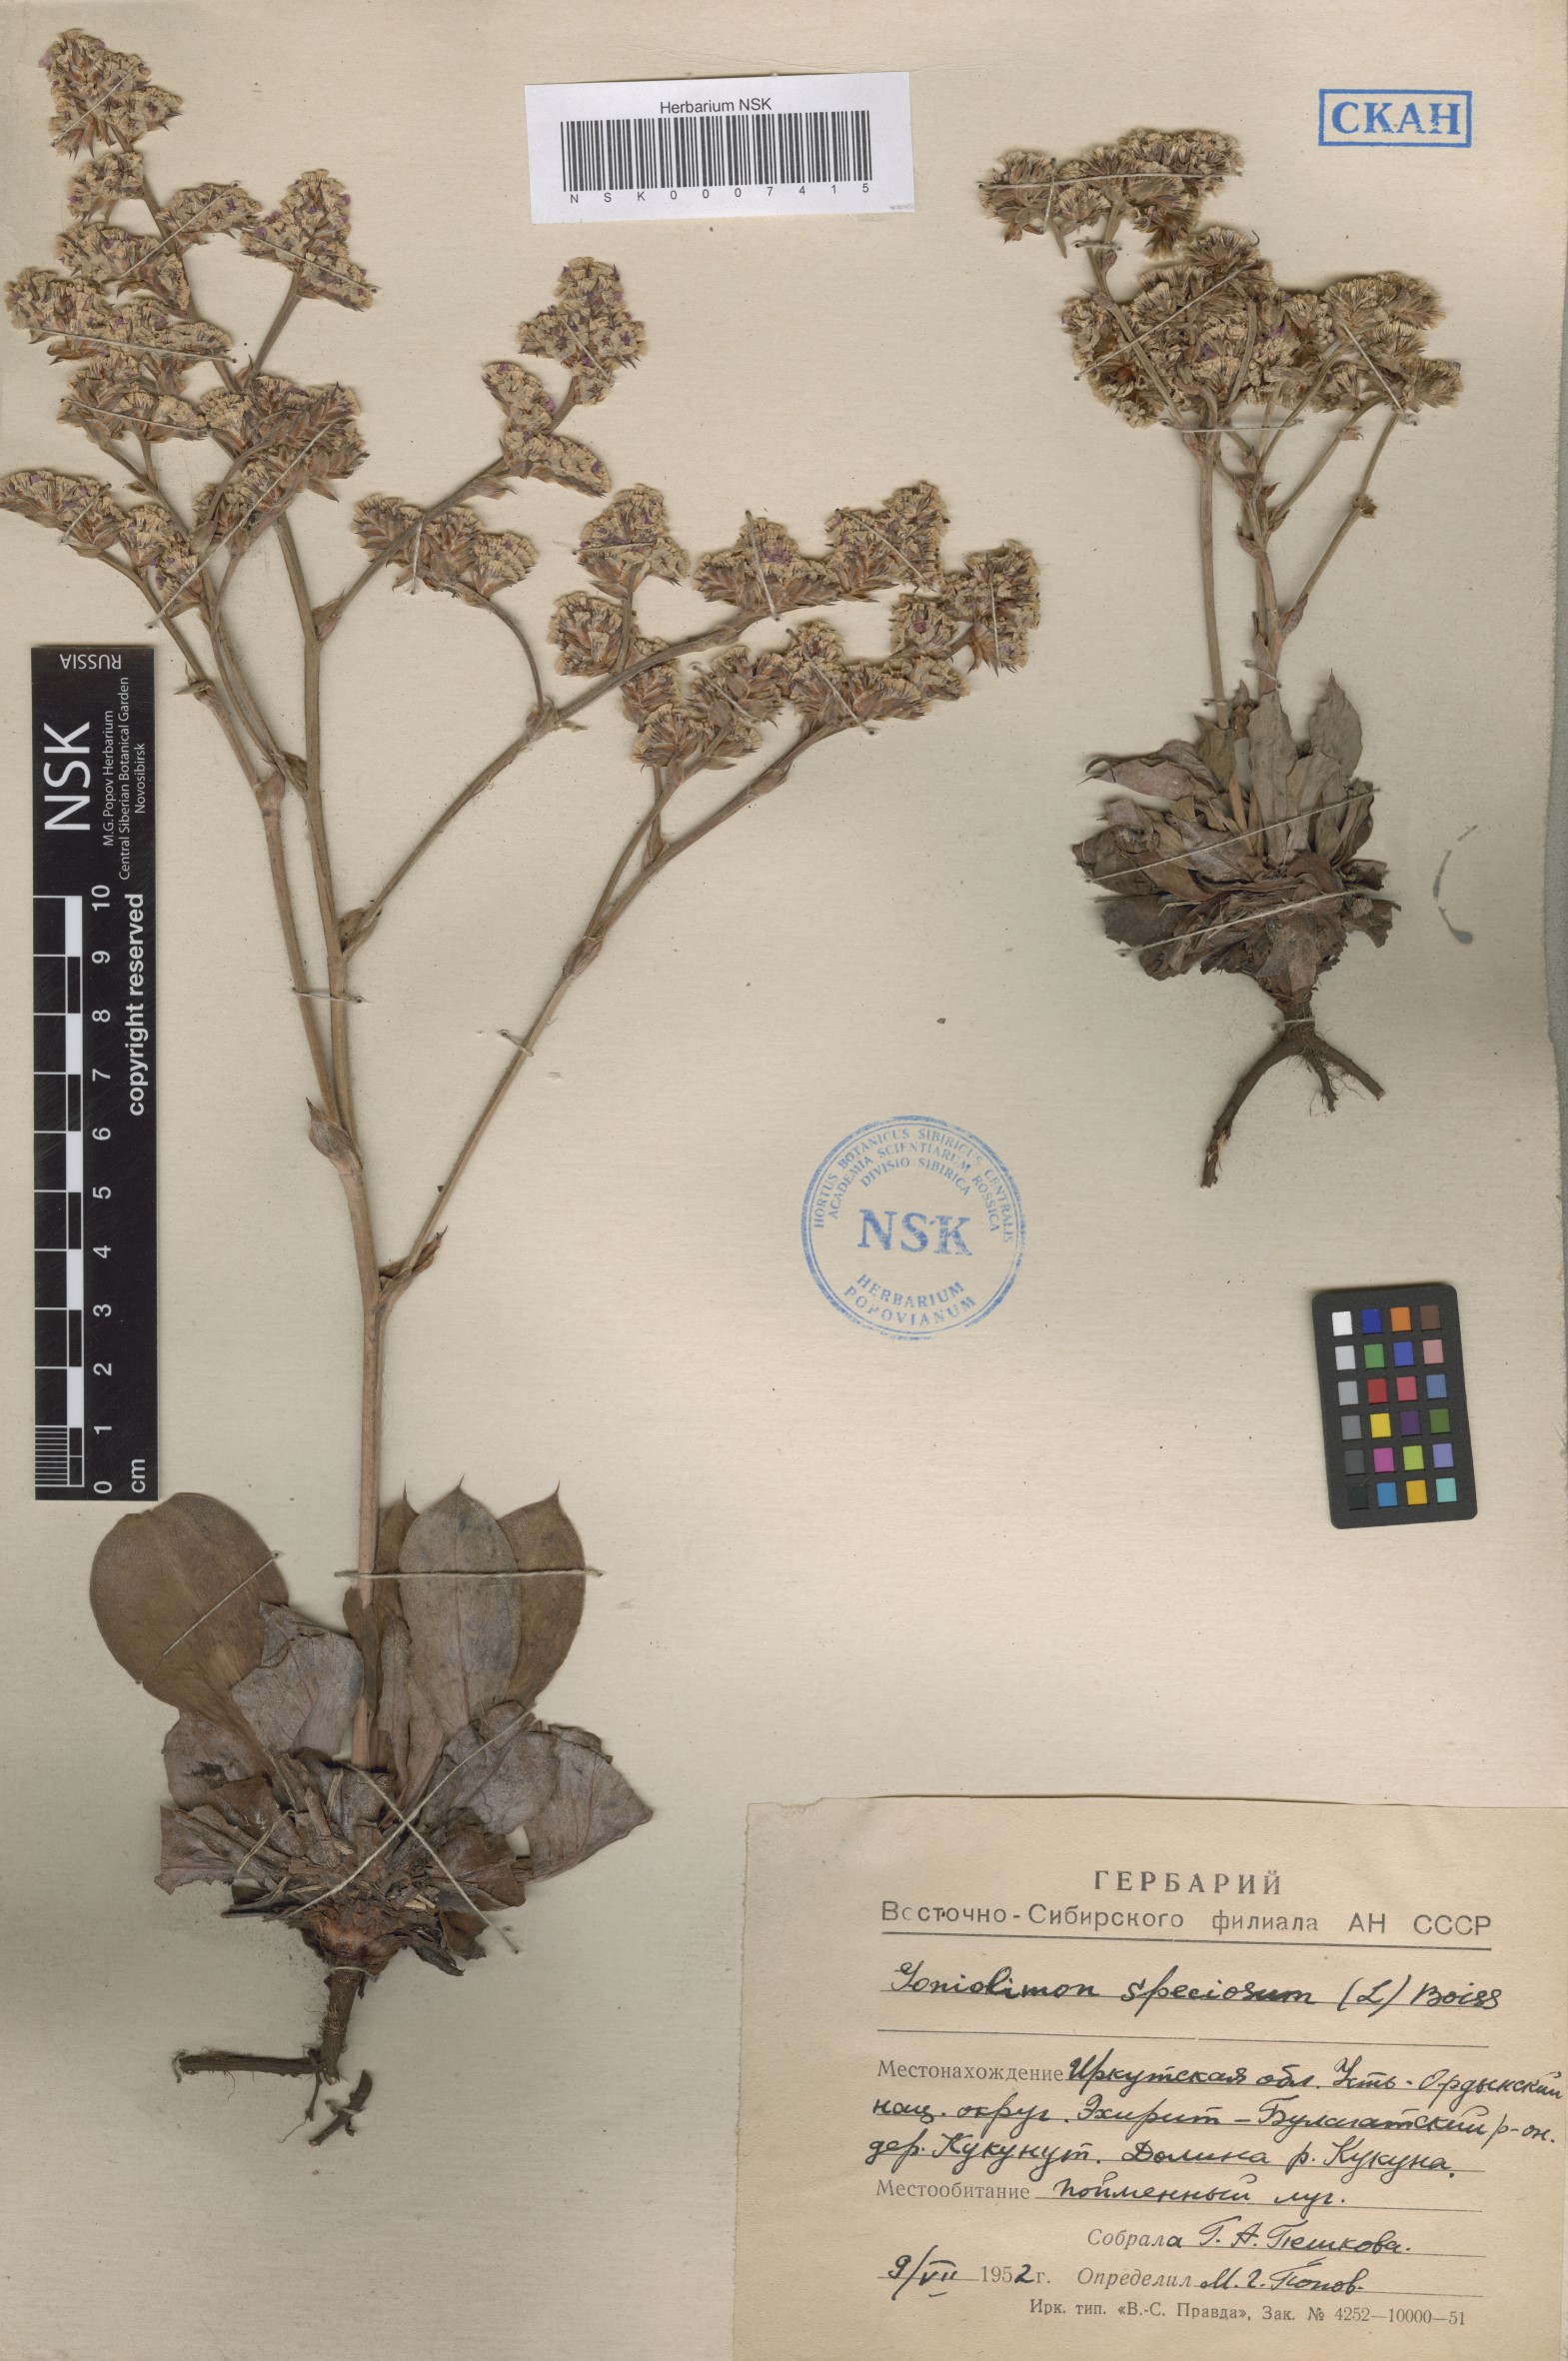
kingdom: Plantae
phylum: Tracheophyta
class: Magnoliopsida
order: Caryophyllales
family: Plumbaginaceae
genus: Goniolimon
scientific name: Goniolimon speciosum
